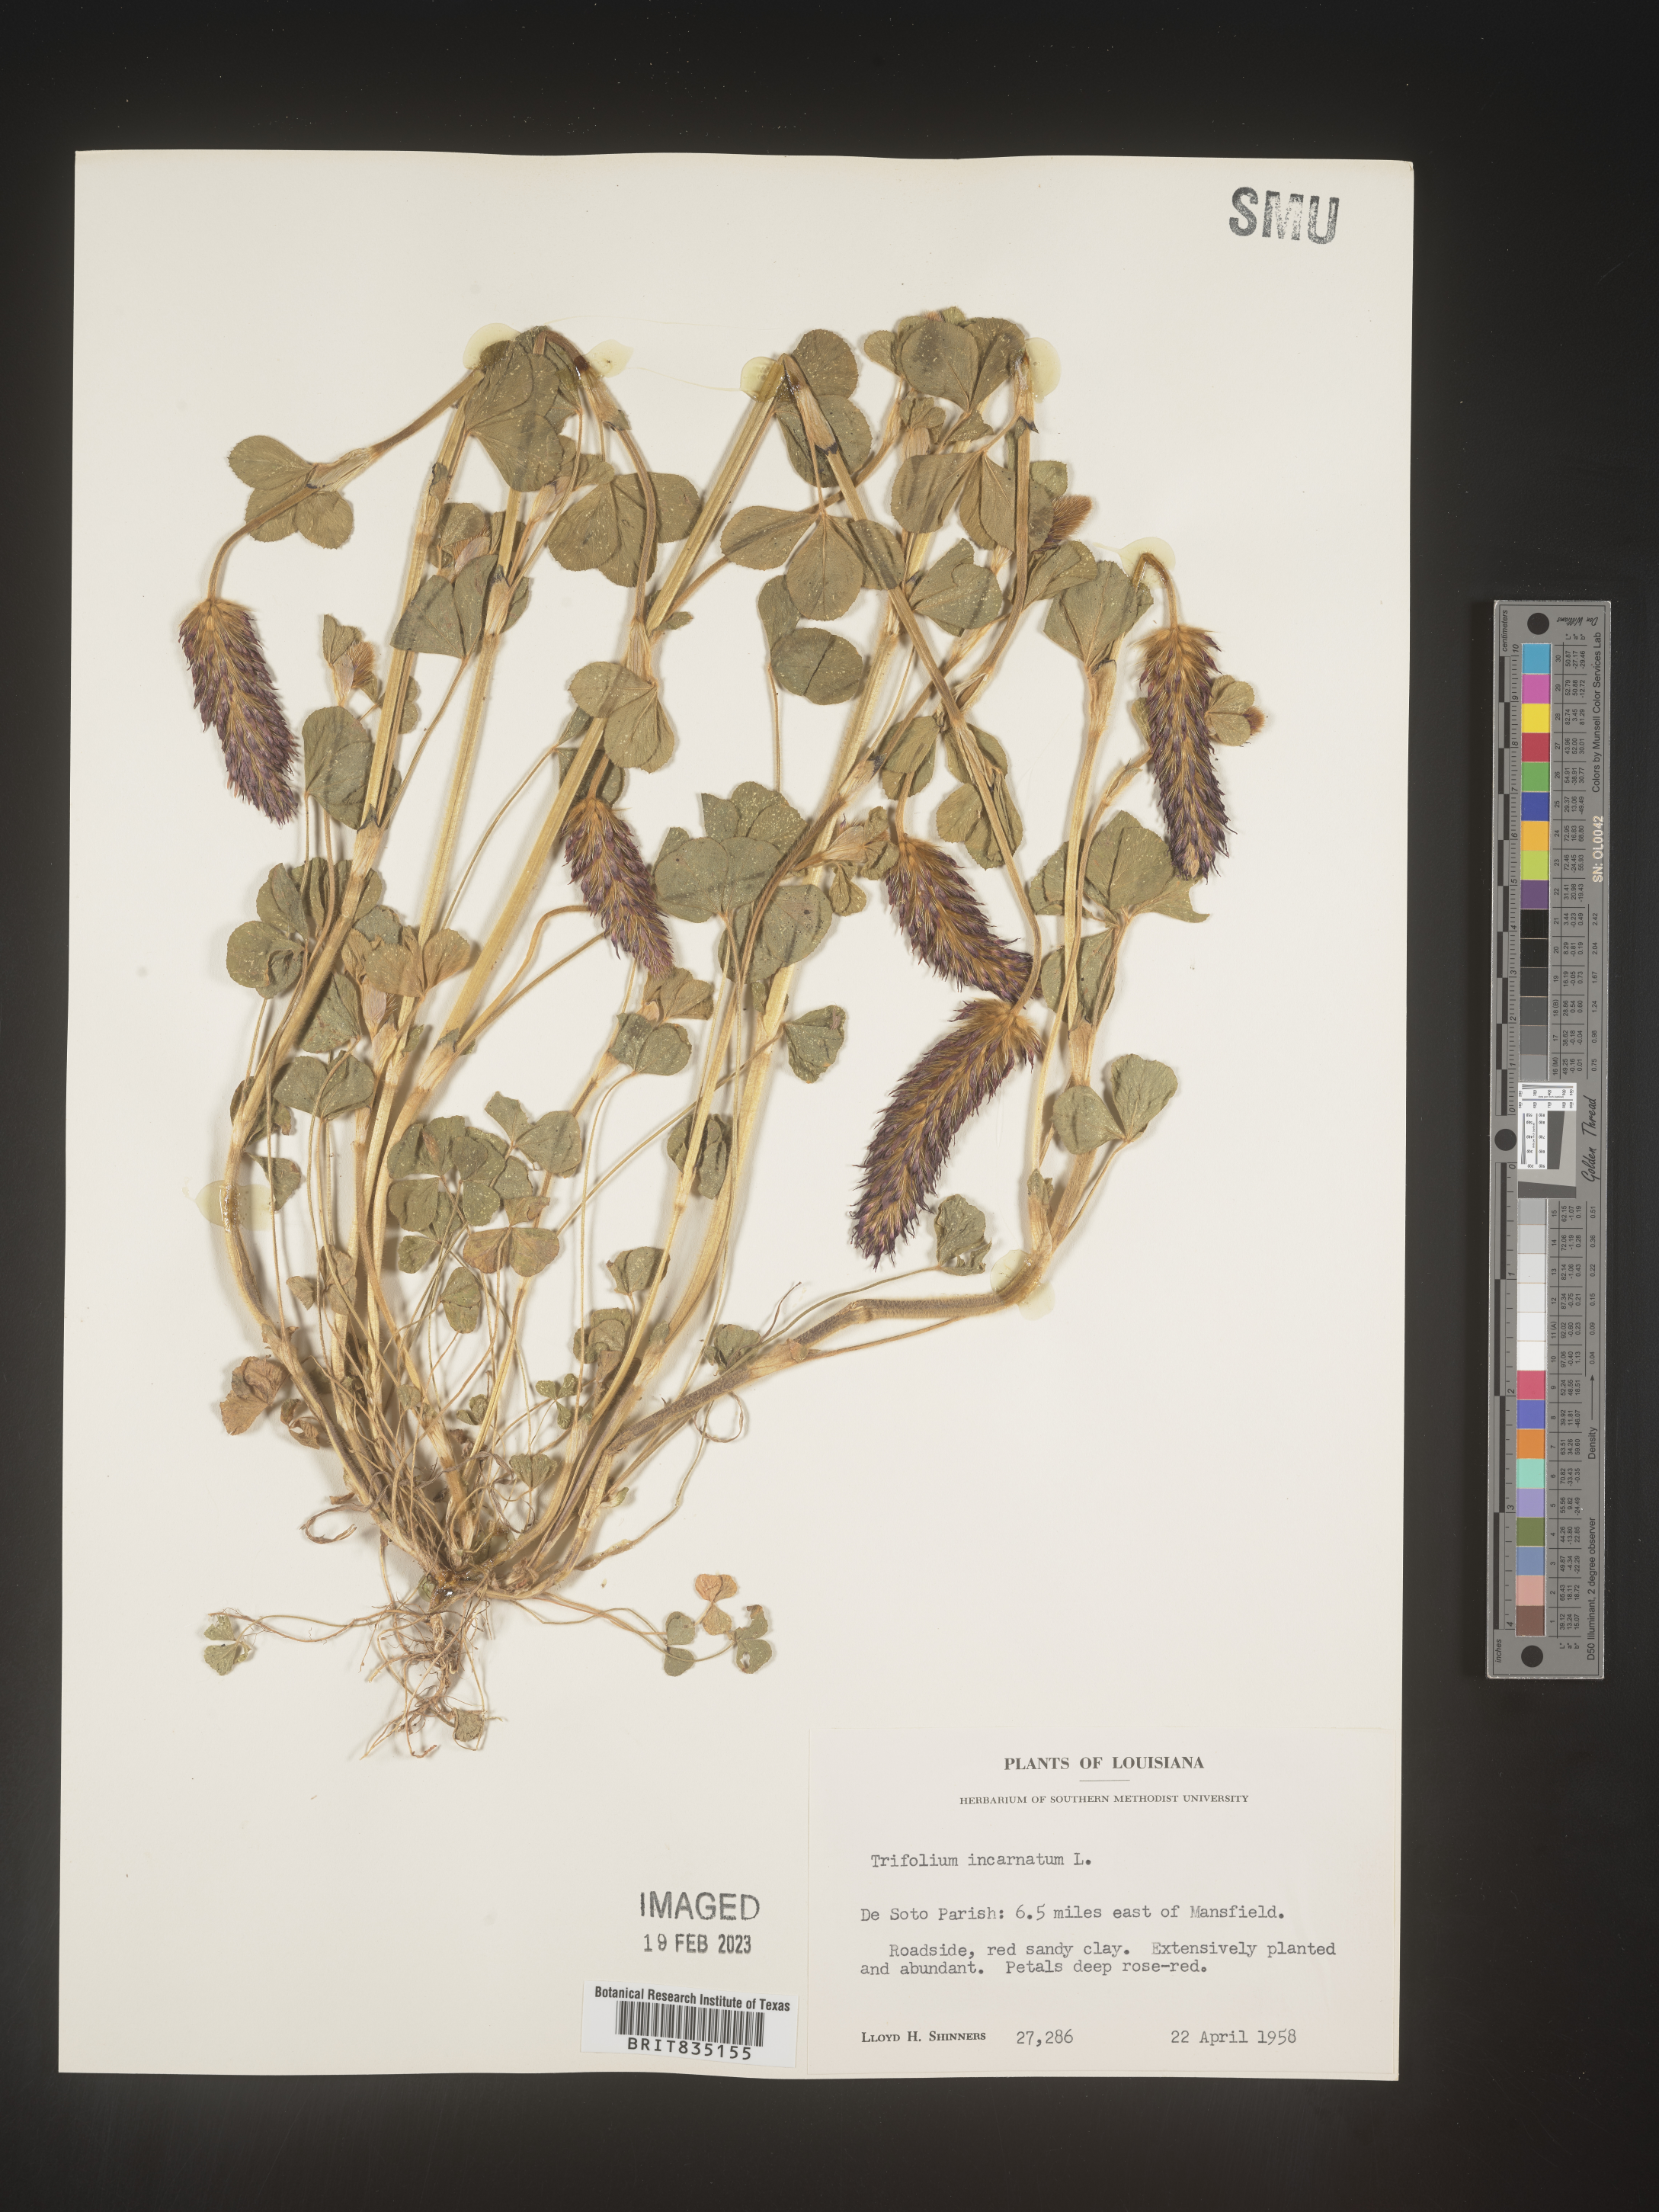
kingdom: Plantae
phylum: Tracheophyta
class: Magnoliopsida
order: Fabales
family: Fabaceae
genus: Trigonella
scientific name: Trigonella
